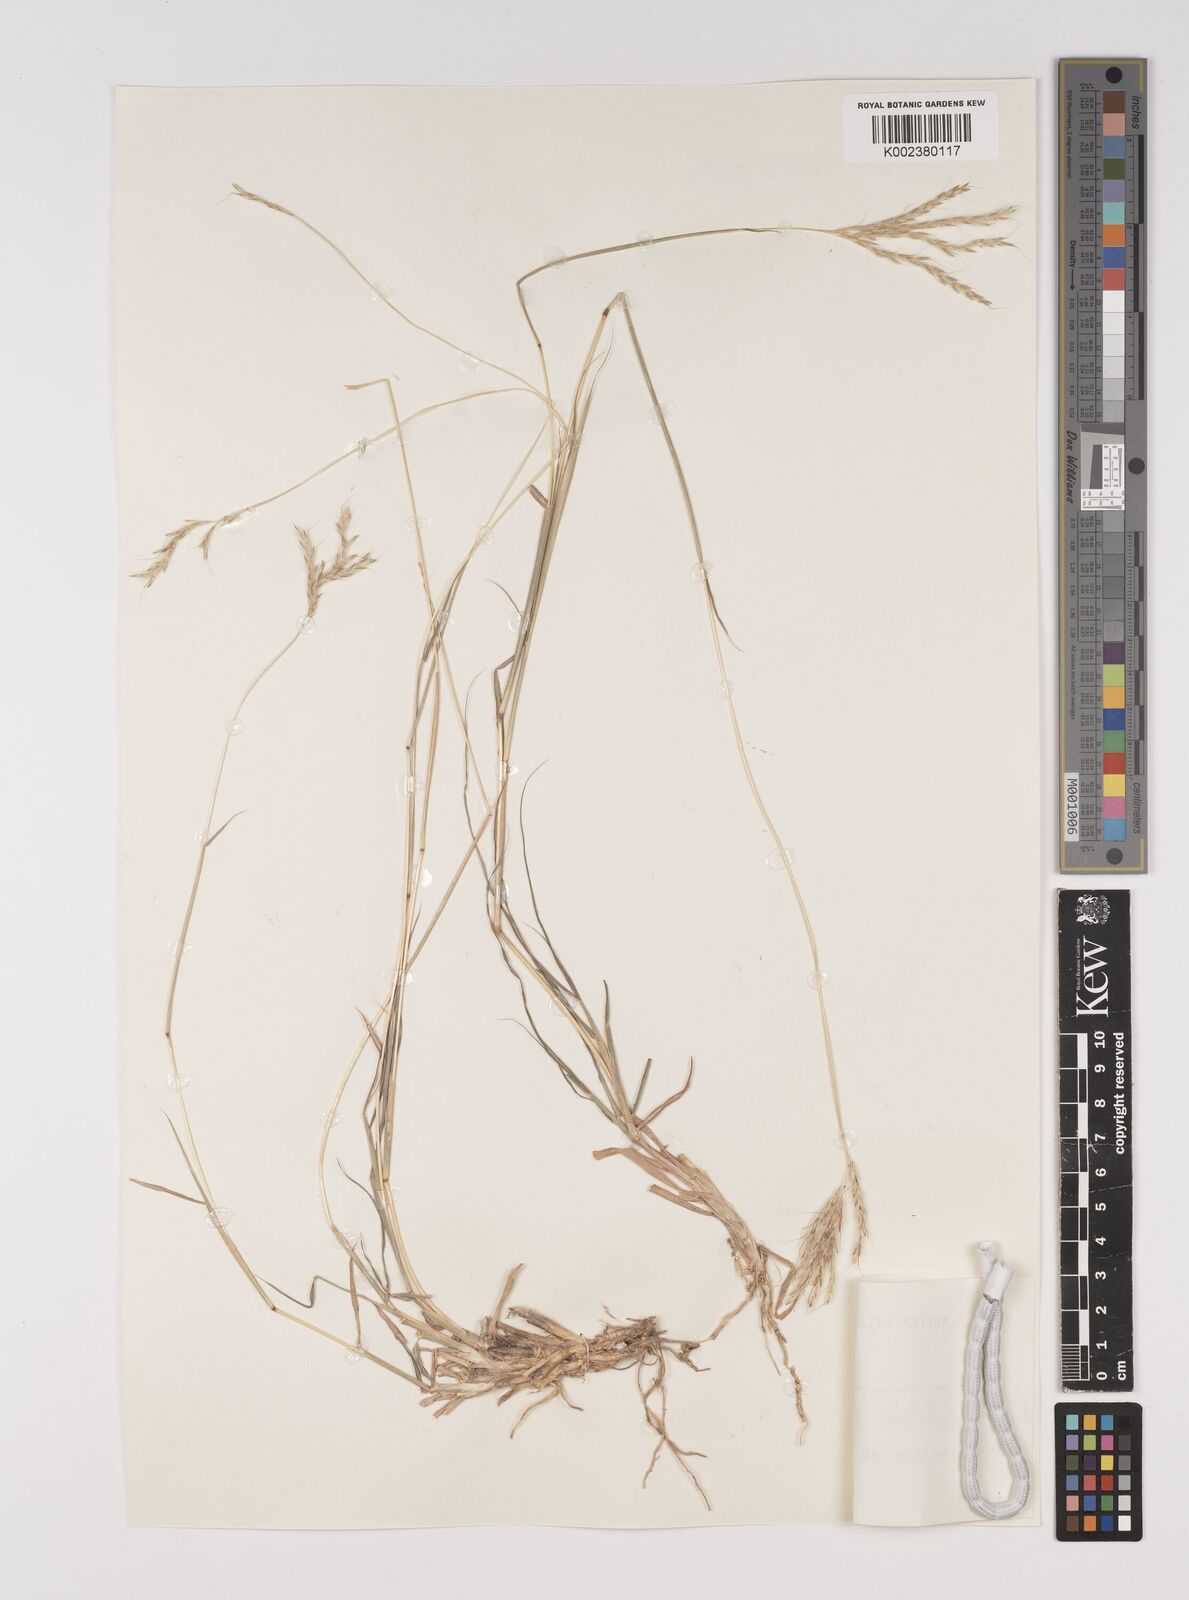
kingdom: Plantae
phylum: Tracheophyta
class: Liliopsida
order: Poales
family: Poaceae
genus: Bothriochloa
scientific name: Bothriochloa ischaemum
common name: Yellow bluestem
